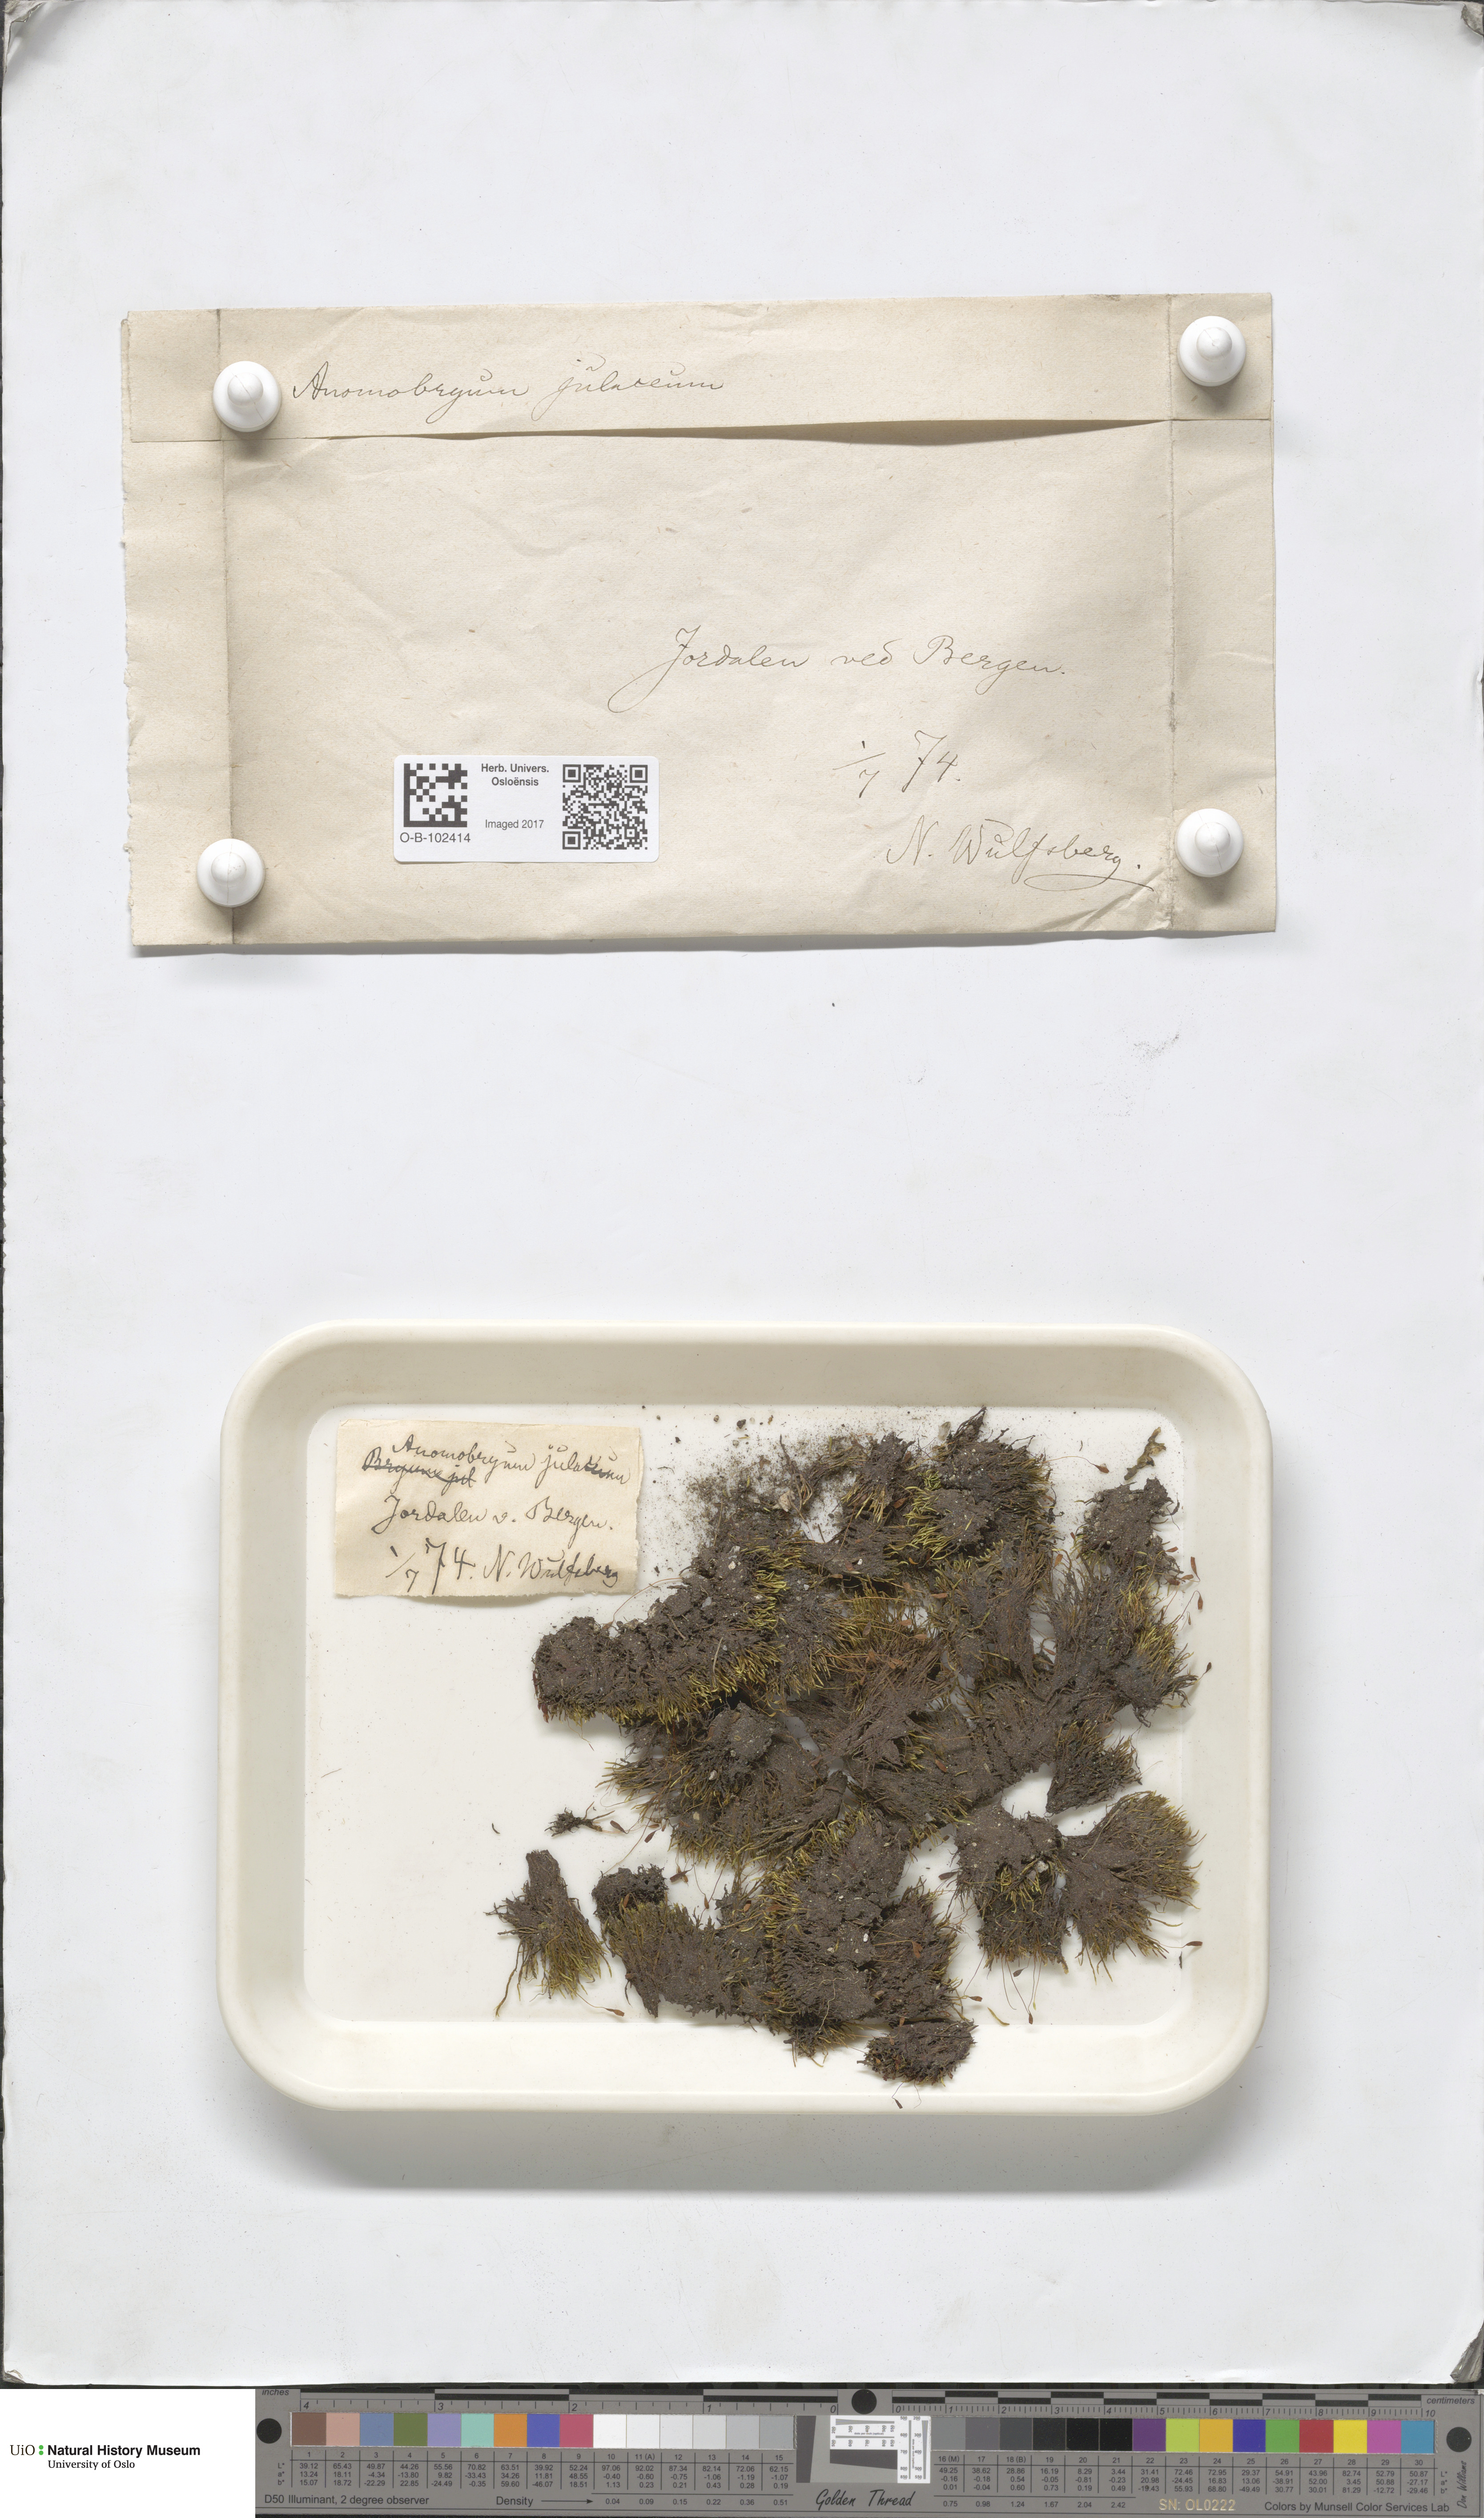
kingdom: Plantae
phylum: Bryophyta
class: Bryopsida
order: Bryales
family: Bryaceae
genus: Anomobryum
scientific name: Anomobryum julaceum
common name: Slender silver moss
